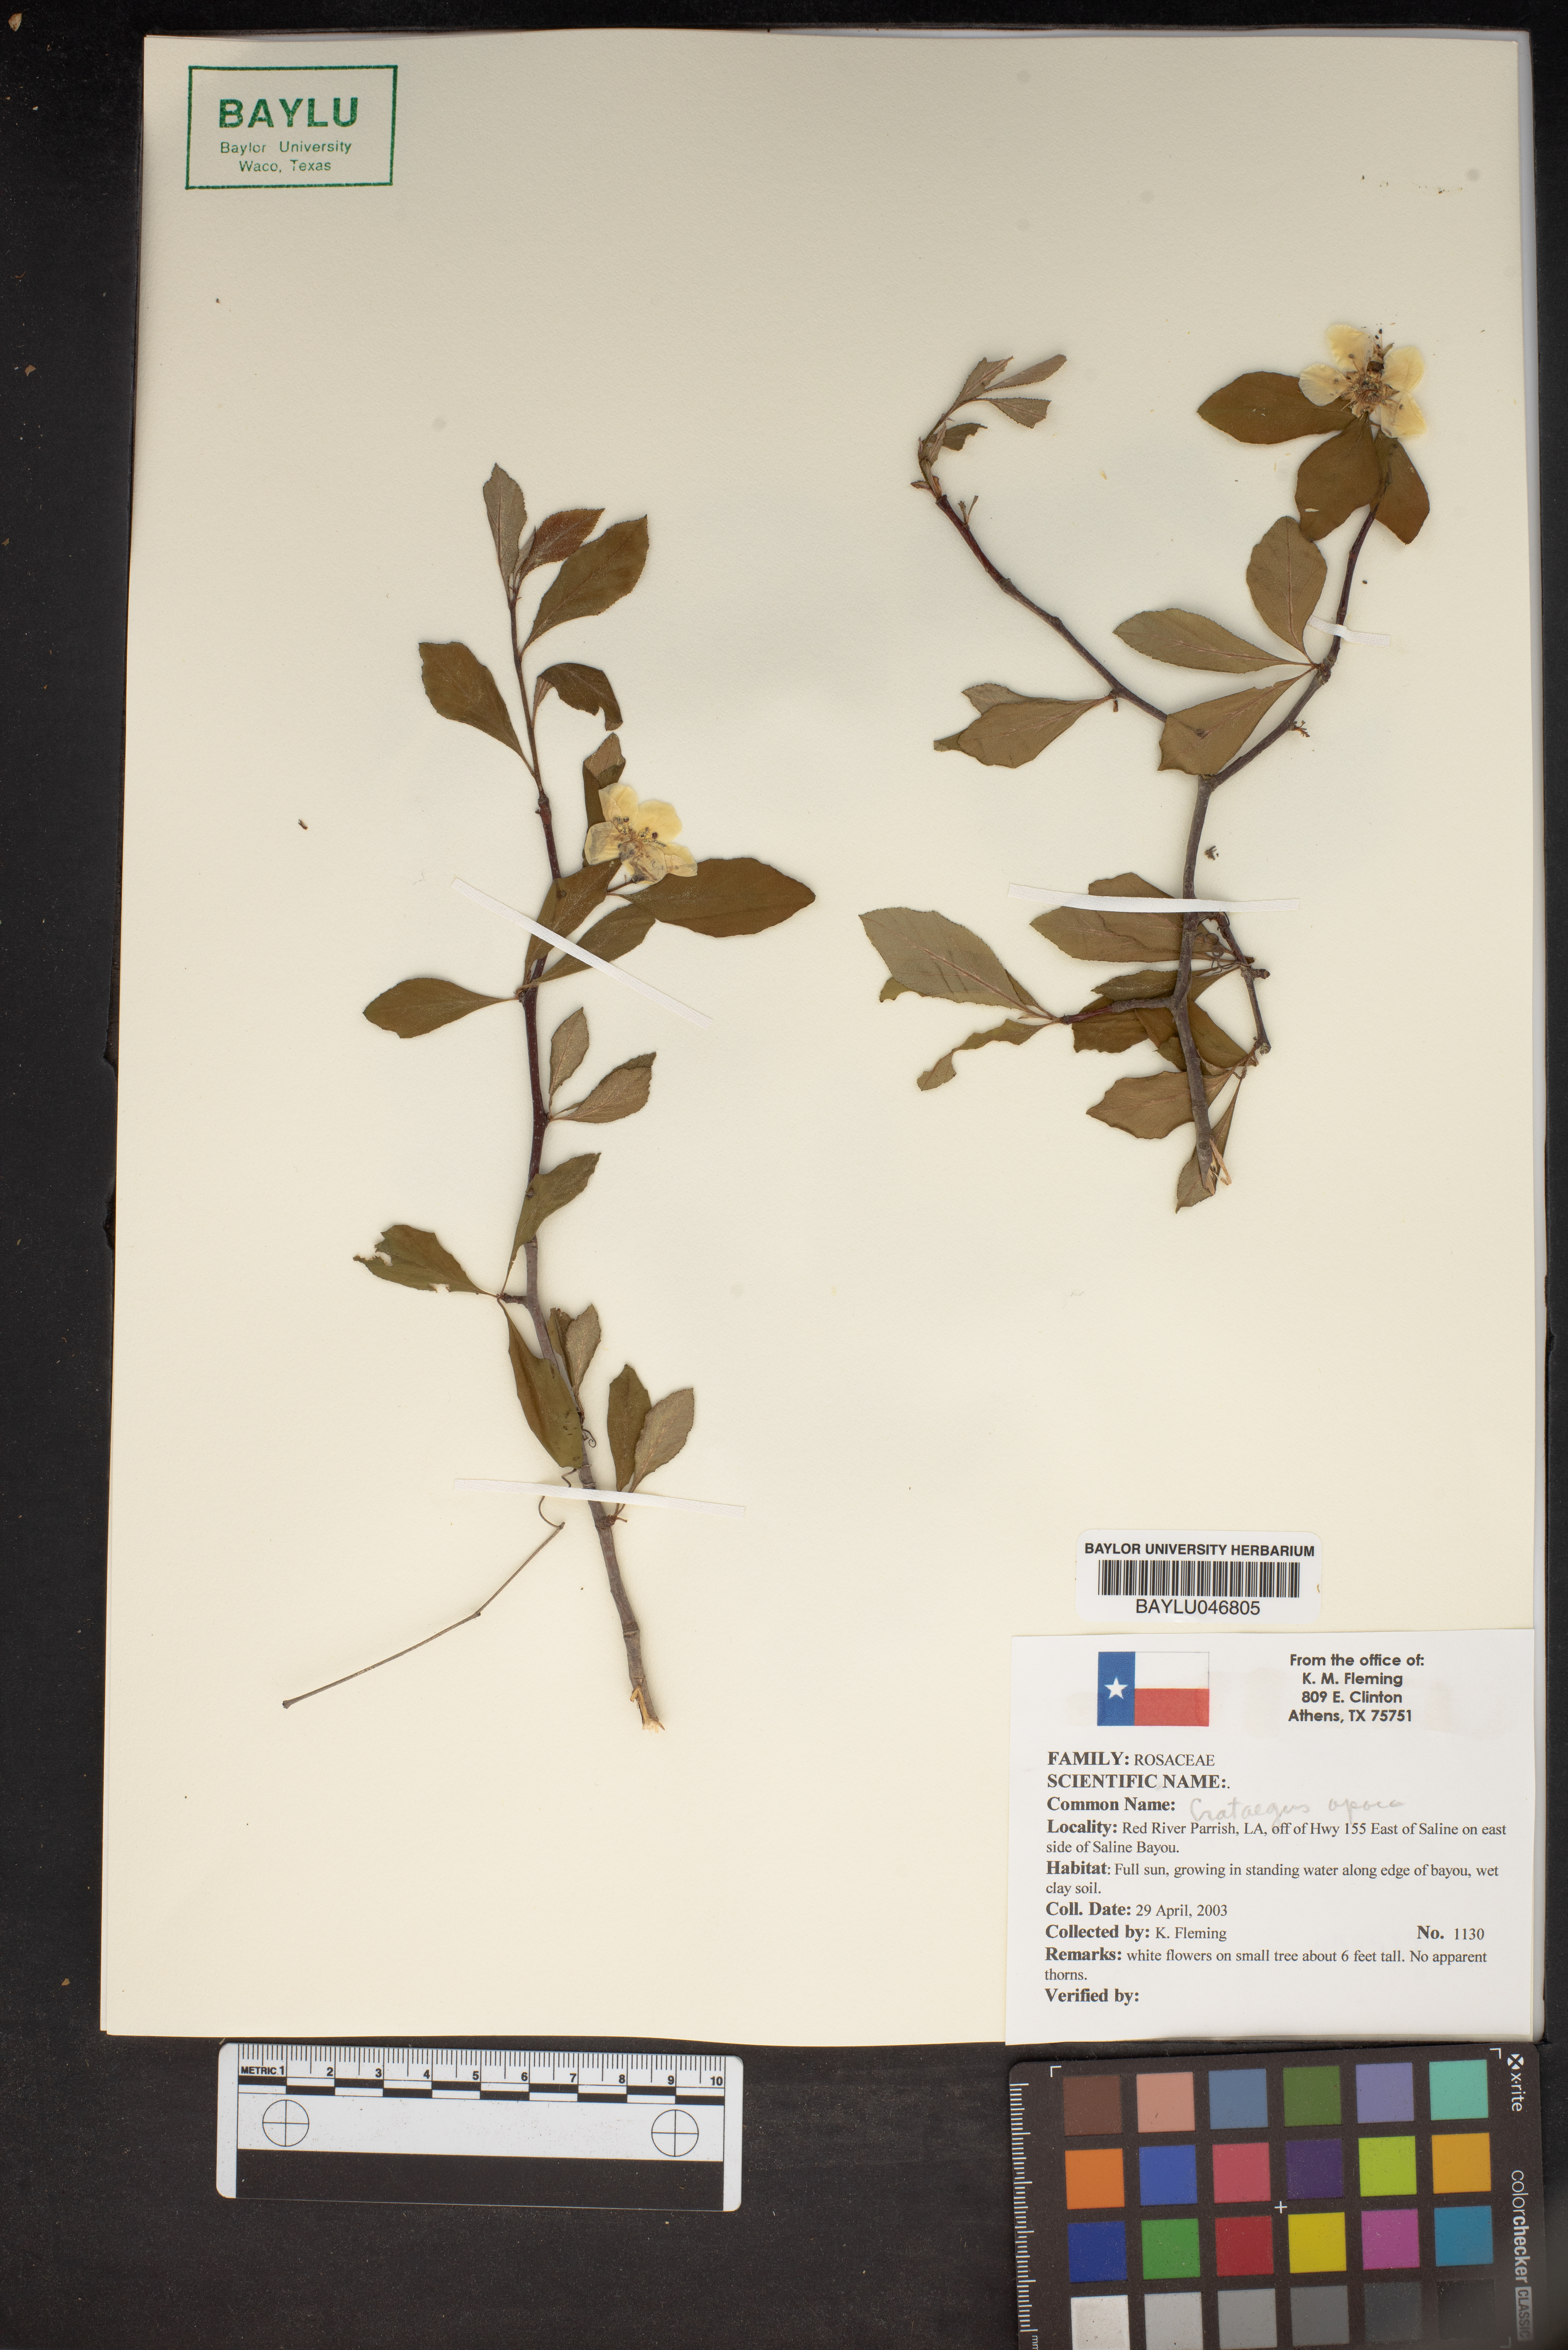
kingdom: Plantae
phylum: Tracheophyta
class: Magnoliopsida
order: Rosales
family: Rosaceae
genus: Crataegus
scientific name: Crataegus aprica
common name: Sunny hawthorn
